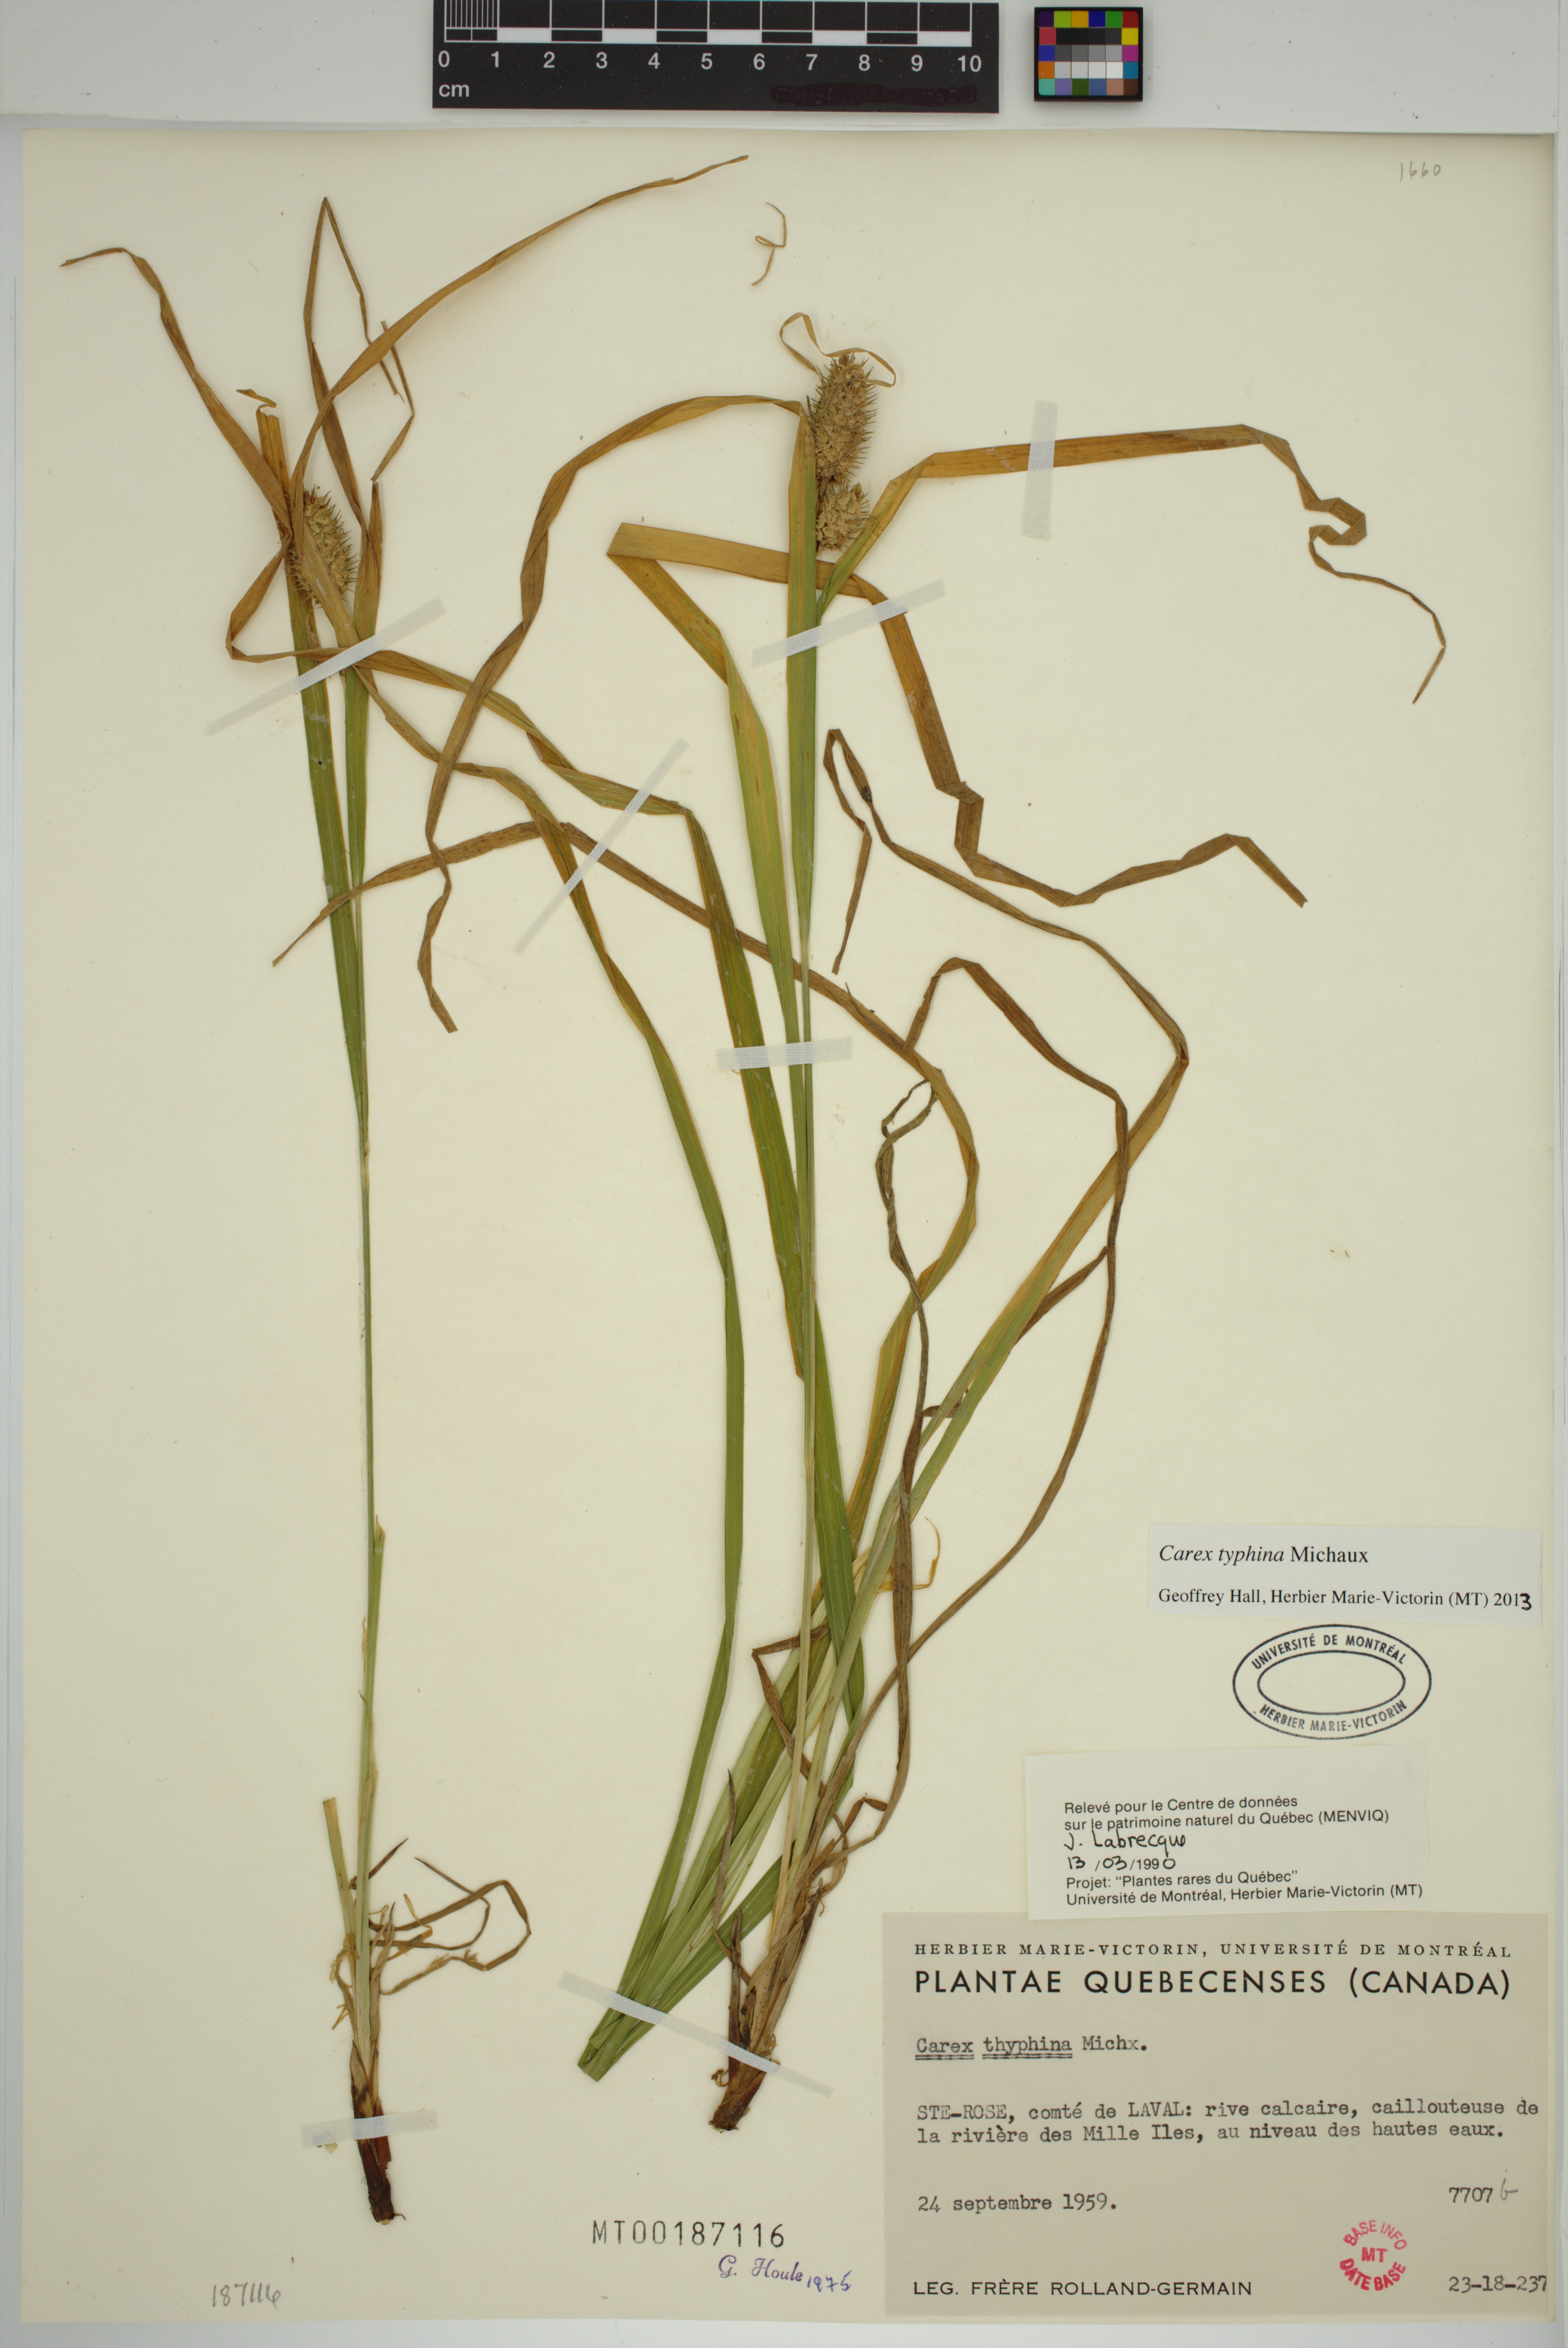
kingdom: Plantae
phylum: Tracheophyta
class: Liliopsida
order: Poales
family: Cyperaceae
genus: Carex
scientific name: Carex typhina
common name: Cattail sedge
